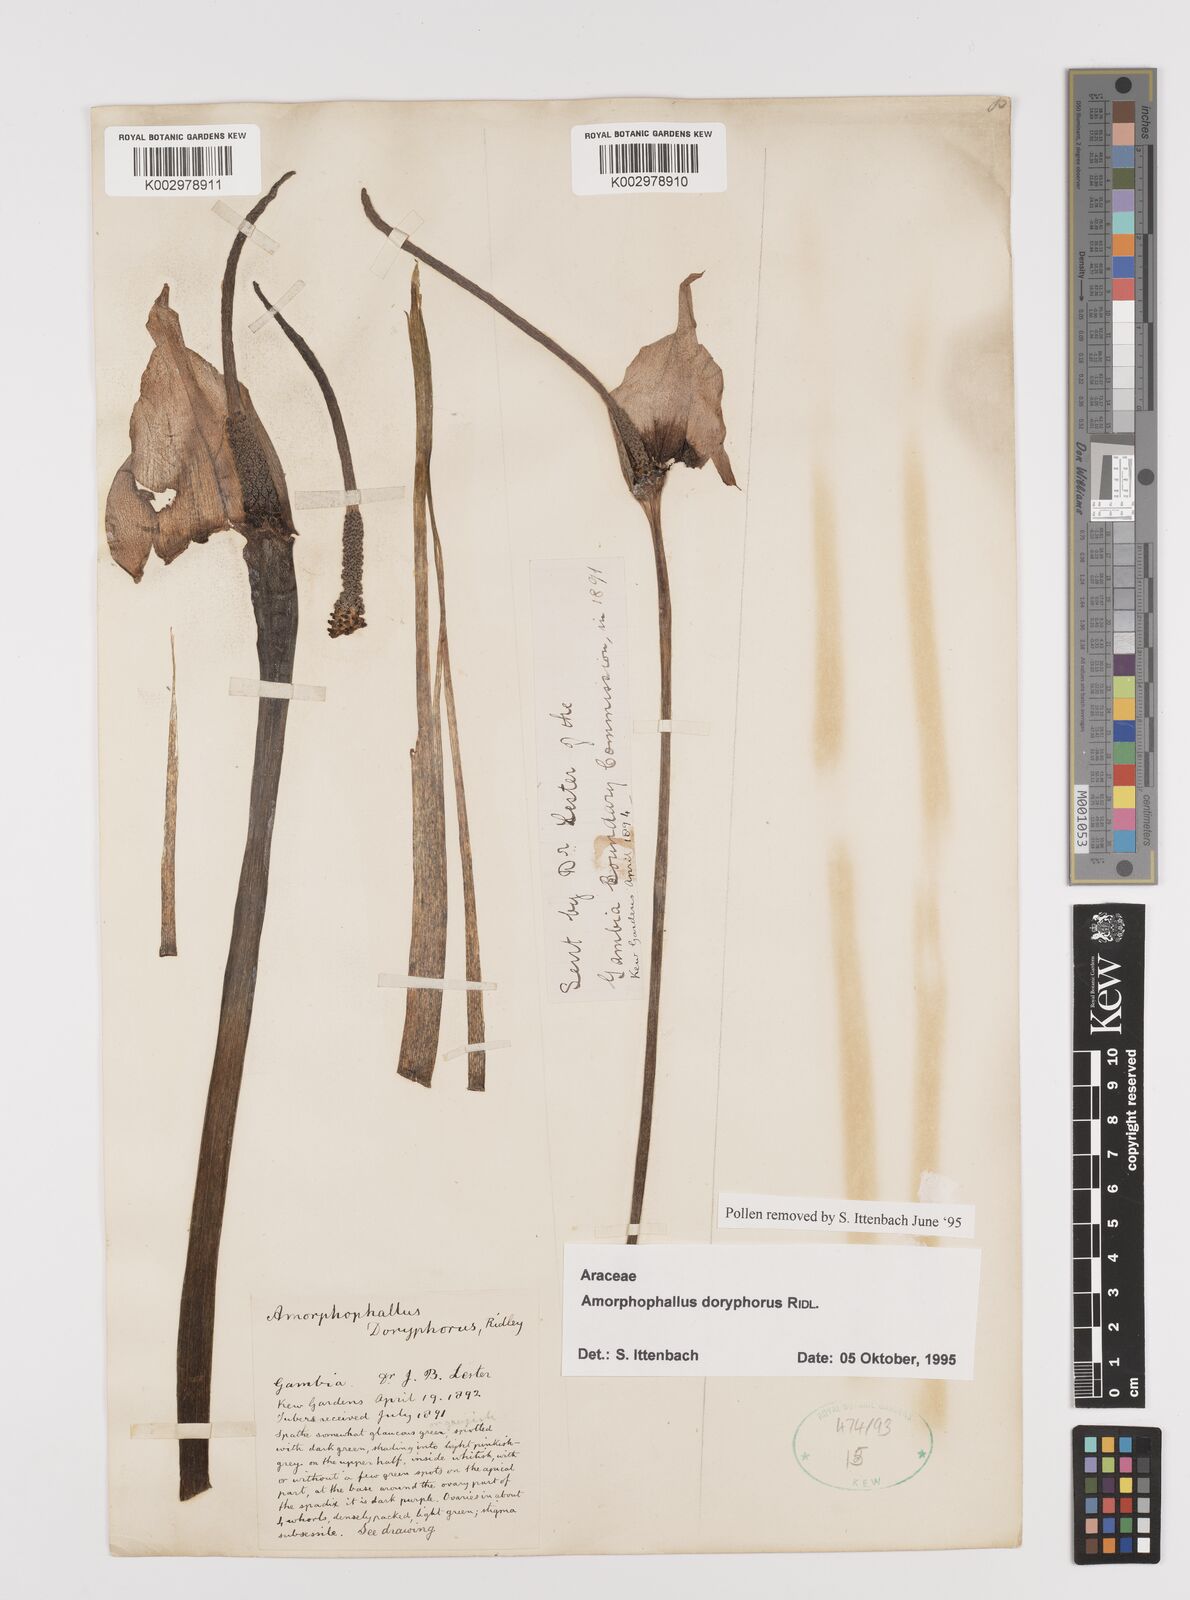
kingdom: Plantae
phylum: Tracheophyta
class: Liliopsida
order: Alismatales
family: Araceae
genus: Amorphophallus
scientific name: Amorphophallus consimilis
